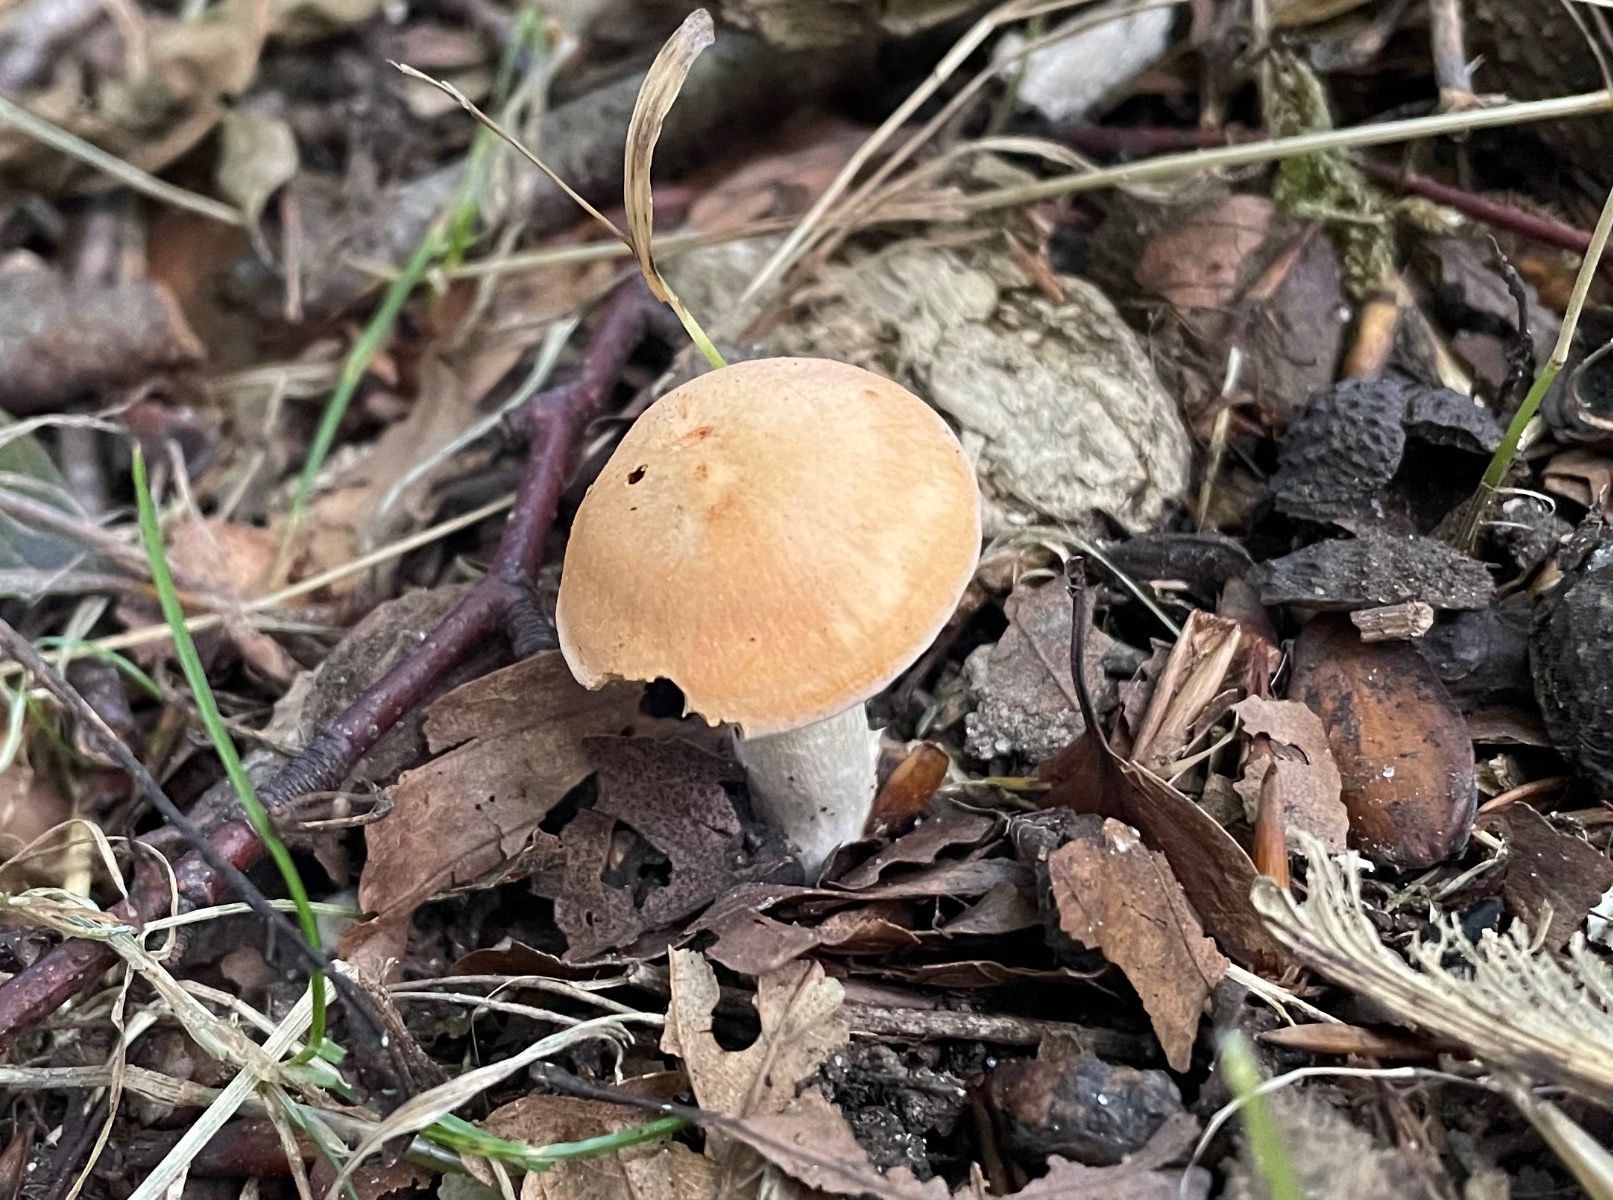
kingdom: Fungi
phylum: Basidiomycota
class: Agaricomycetes
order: Agaricales
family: Hygrophoraceae
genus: Cuphophyllus
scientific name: Cuphophyllus pratensis
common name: eng-vokshat
